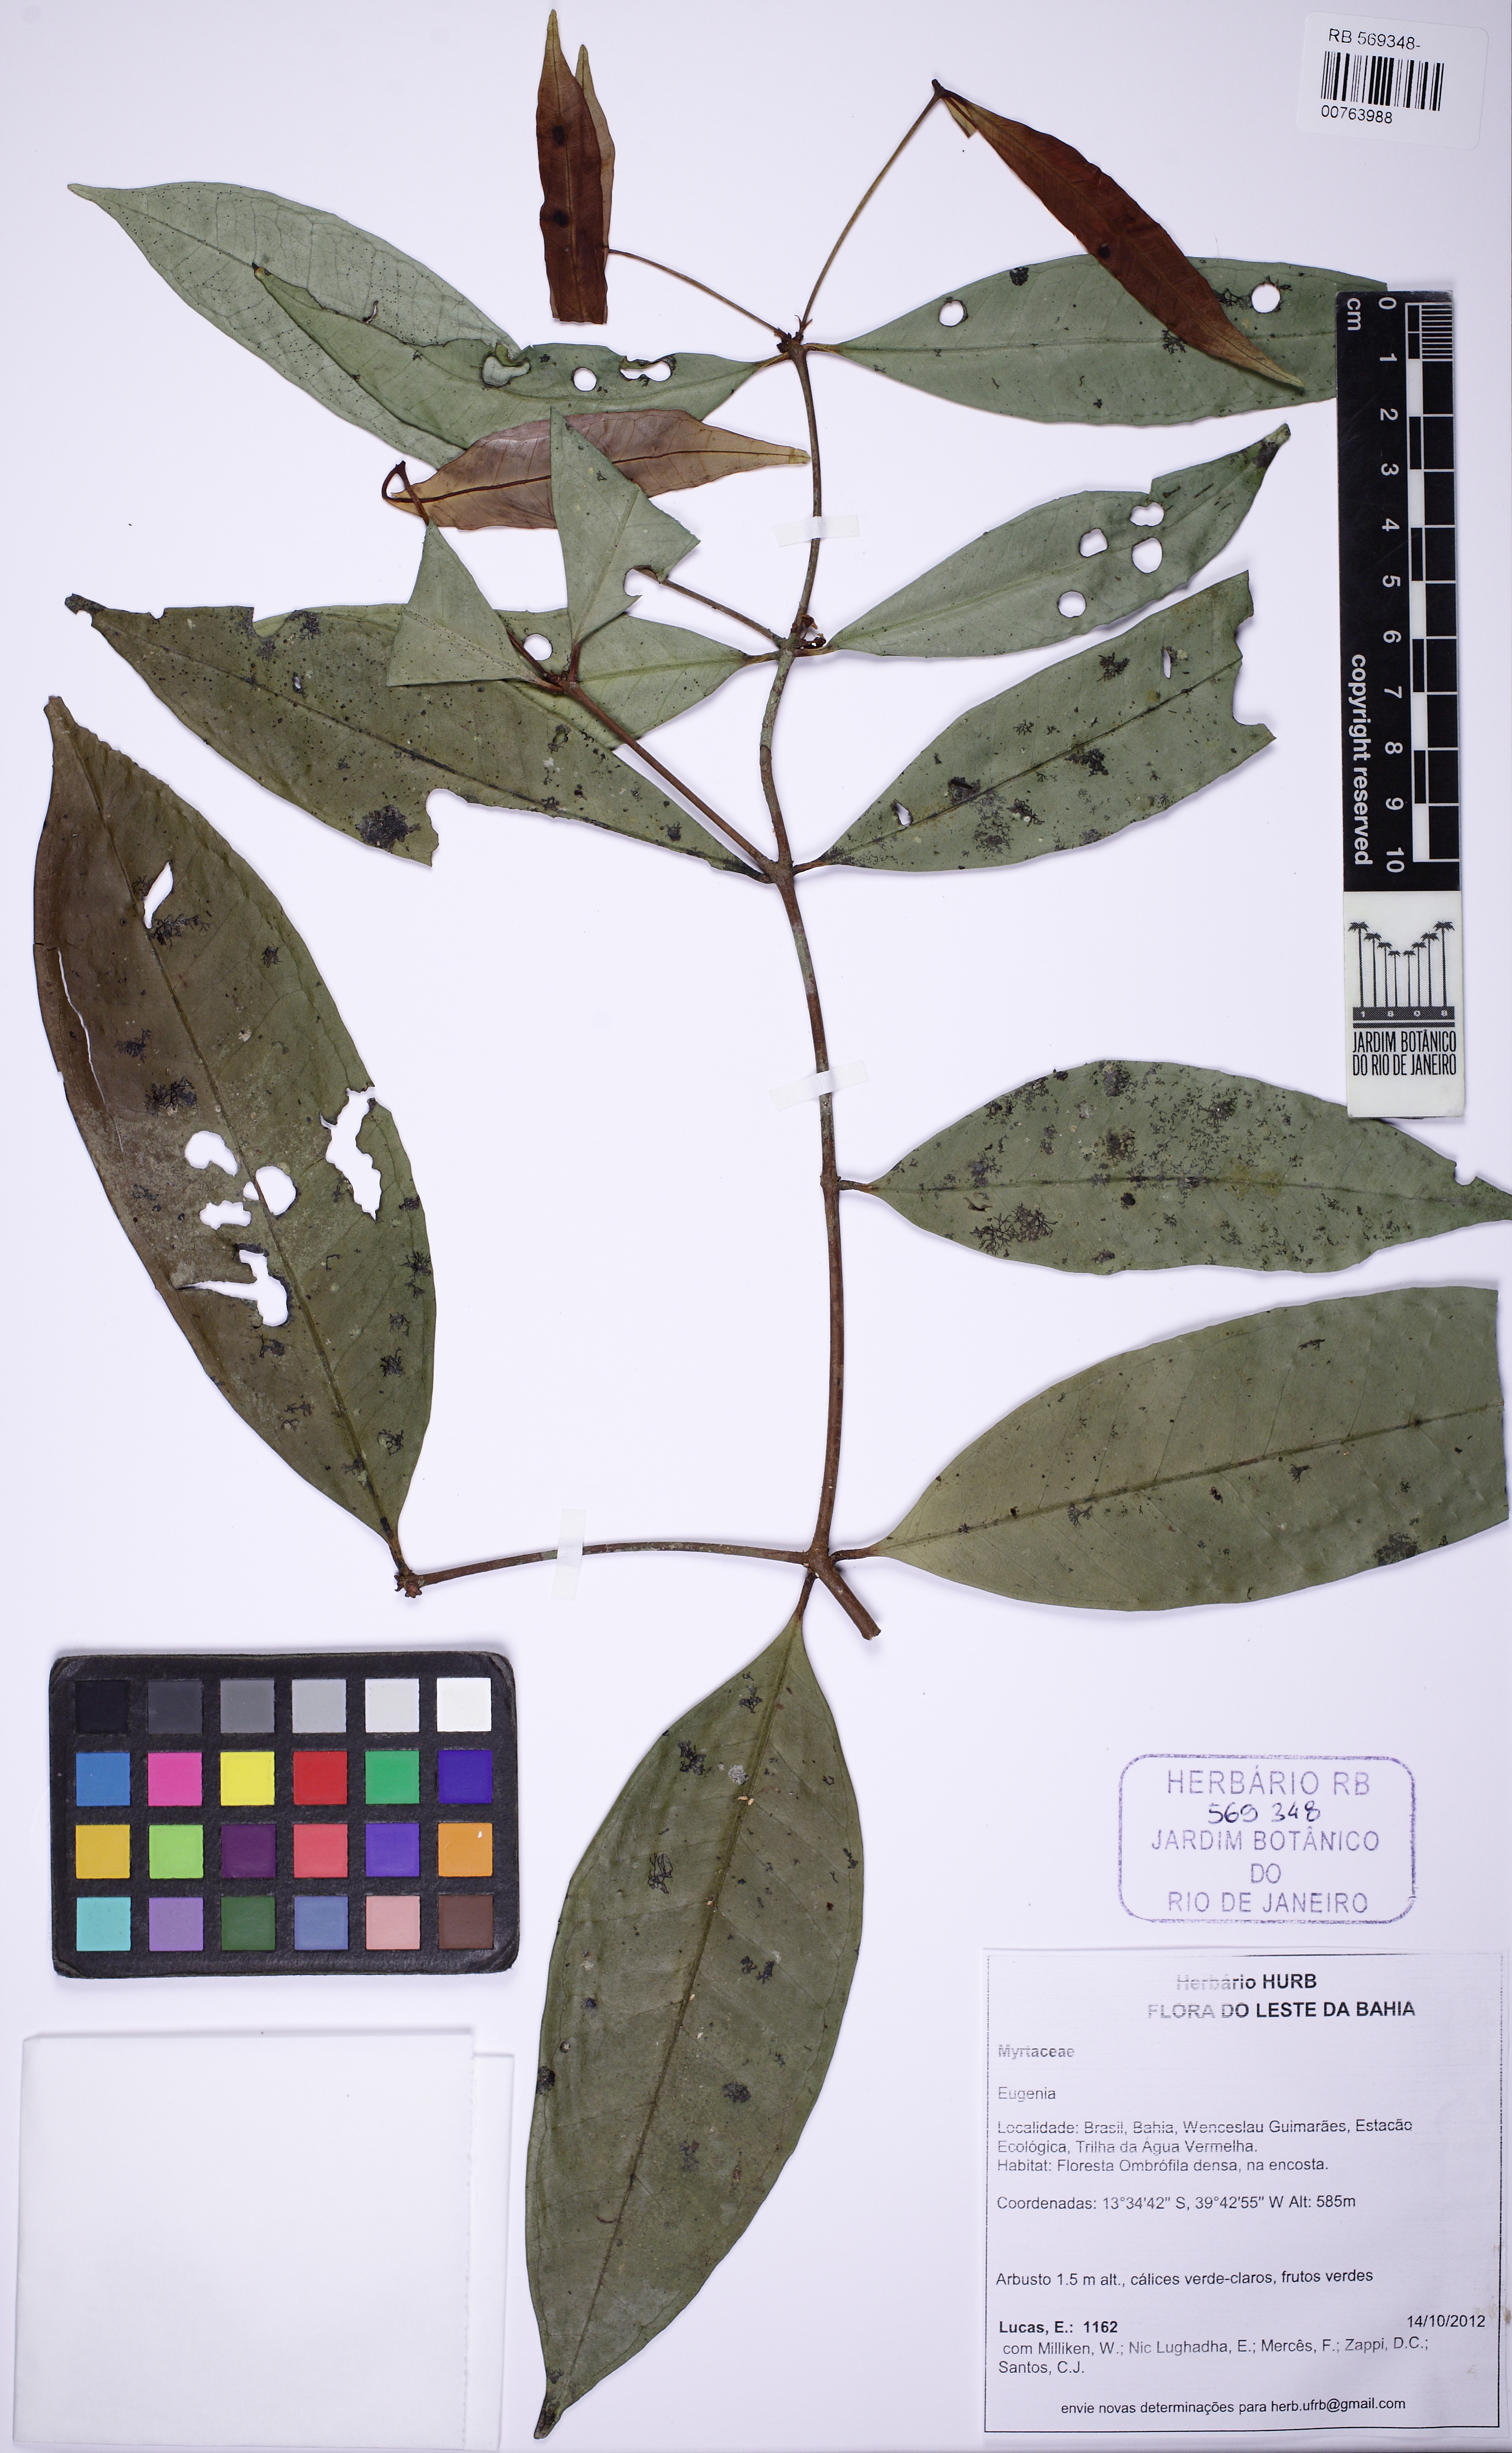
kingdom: Plantae
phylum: Tracheophyta
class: Magnoliopsida
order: Myrtales
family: Myrtaceae
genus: Eugenia
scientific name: Eugenia
